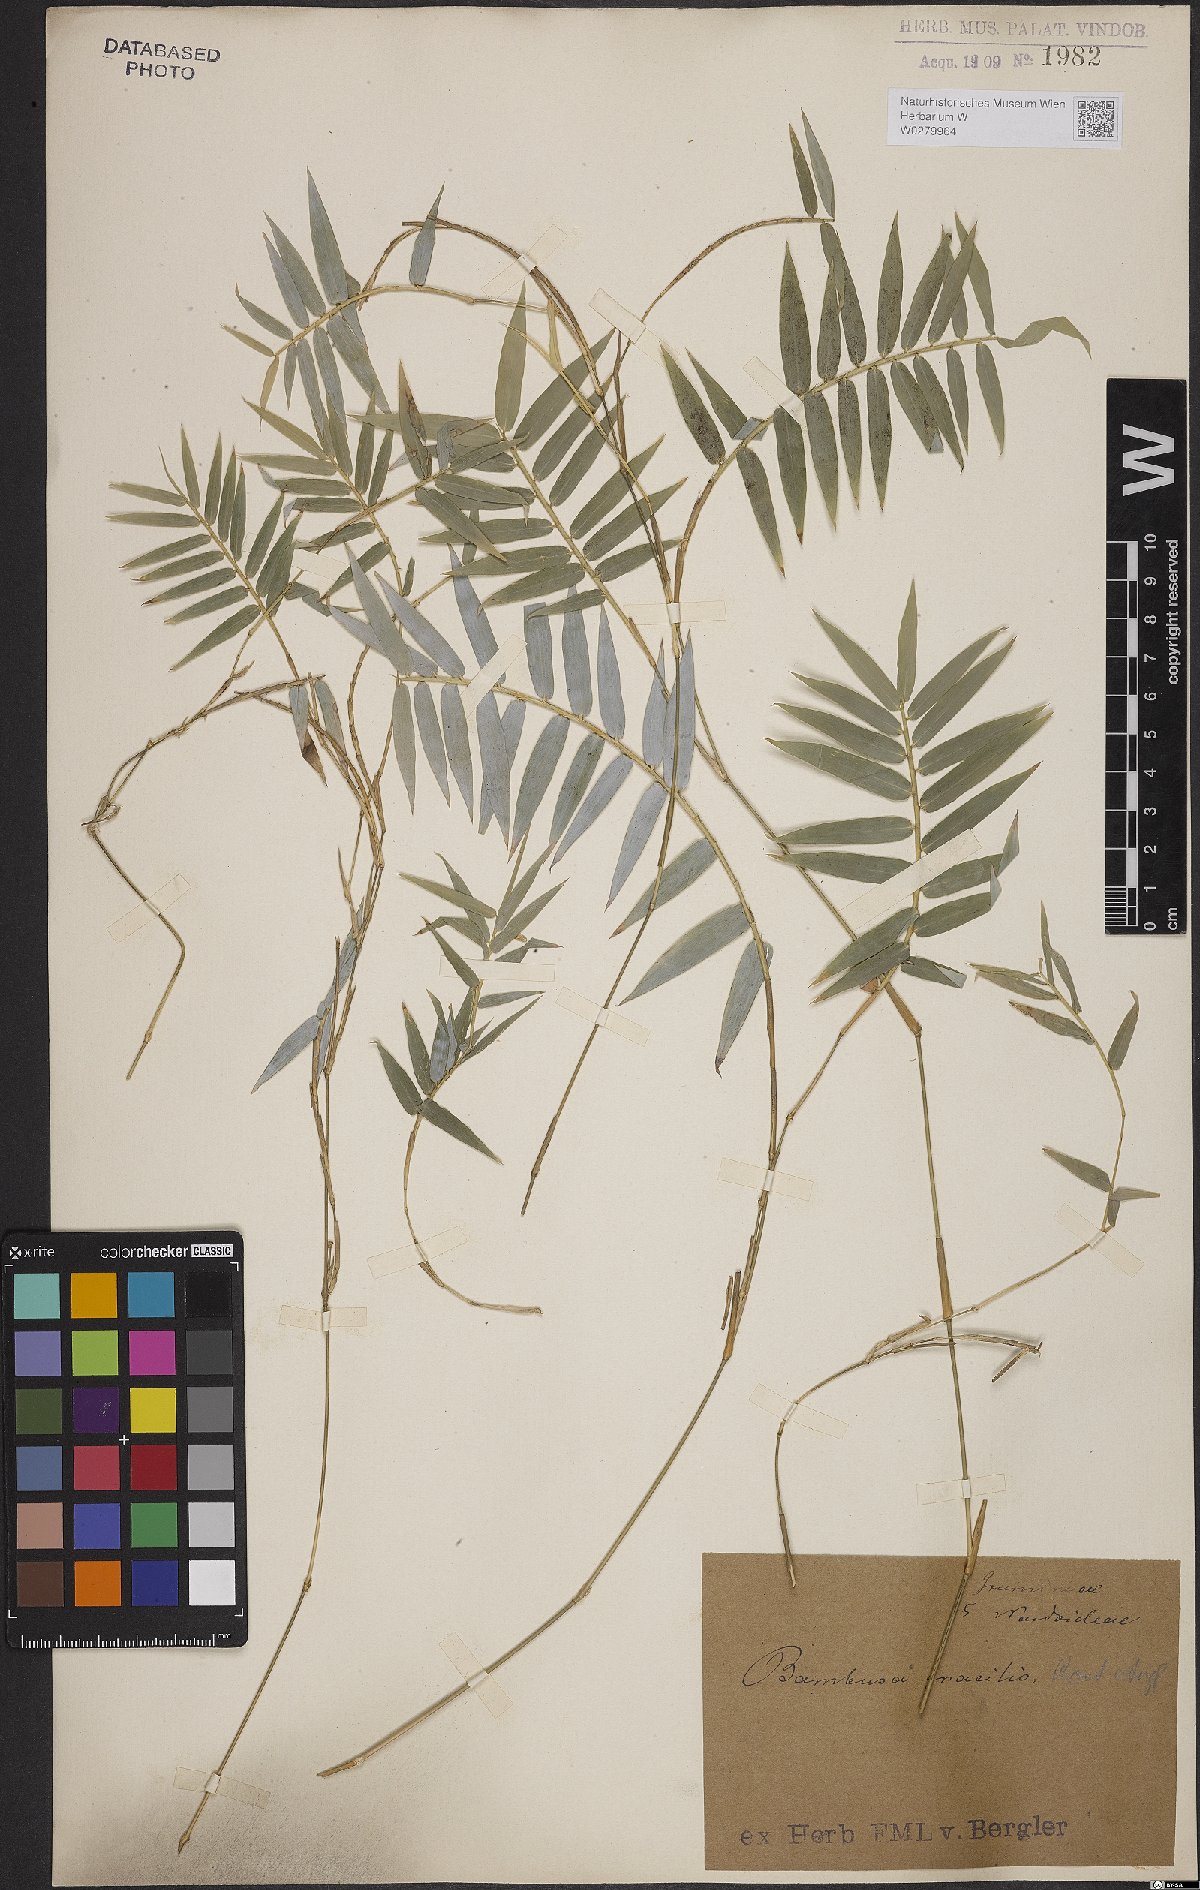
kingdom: Plantae
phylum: Tracheophyta
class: Liliopsida
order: Poales
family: Poaceae
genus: Drepanostachyum
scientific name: Drepanostachyum falcatum
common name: Himalayan bamboo
